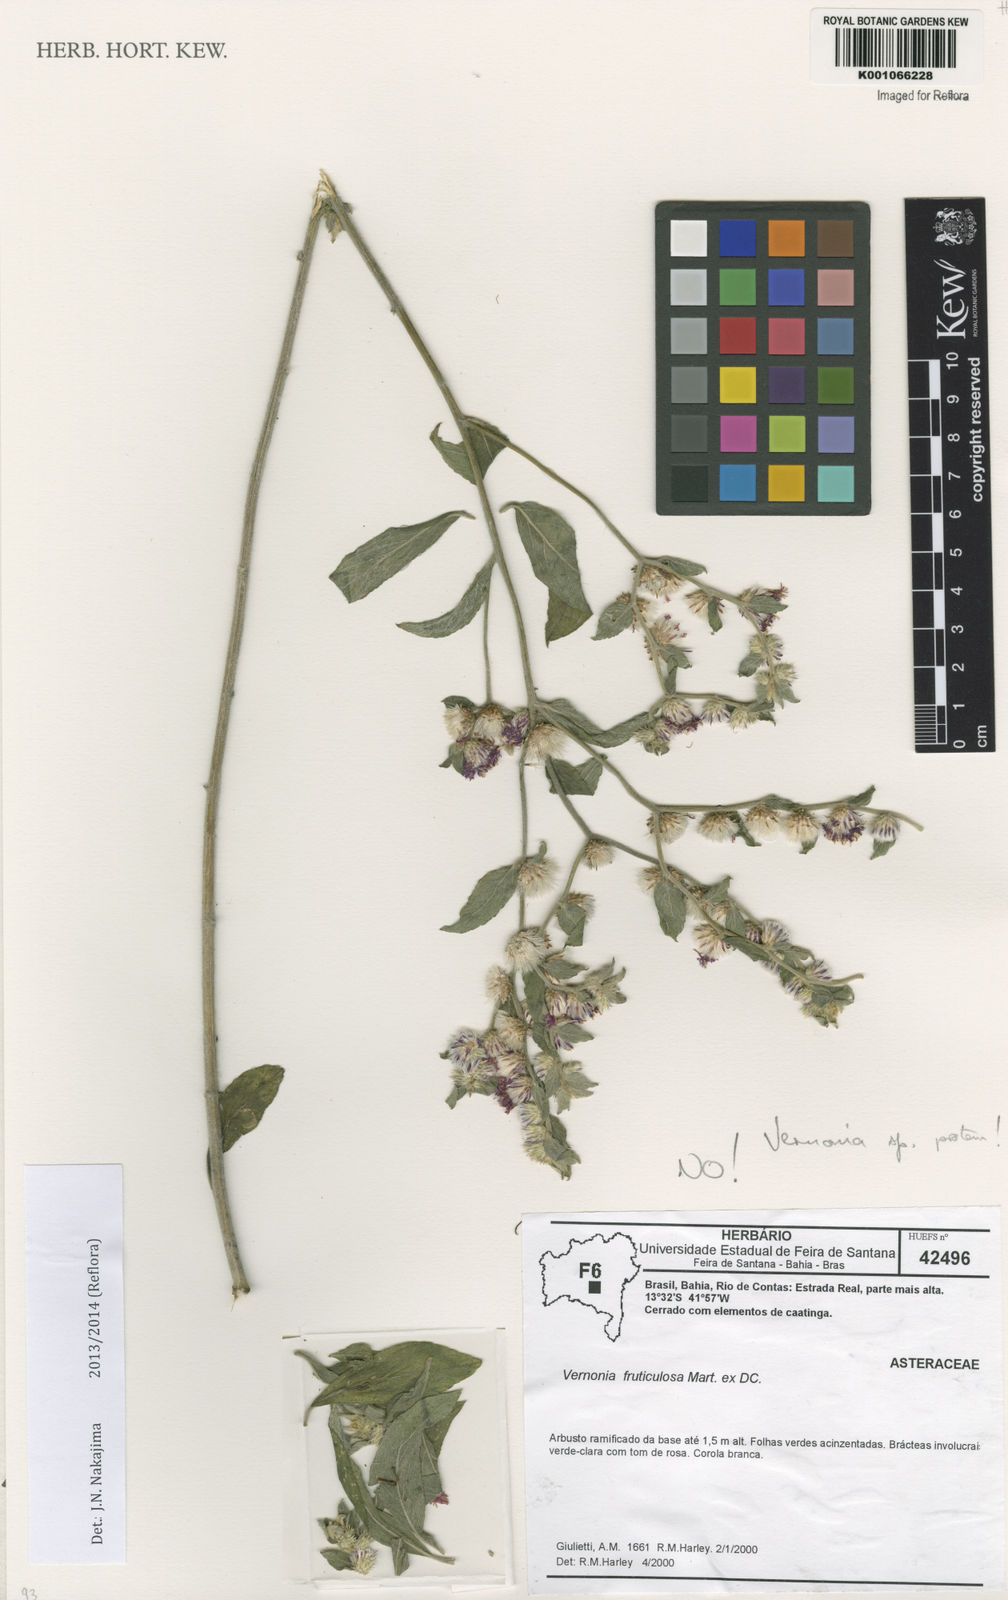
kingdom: Plantae
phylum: Tracheophyta
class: Magnoliopsida
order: Asterales
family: Asteraceae
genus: Lepidaploa
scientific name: Lepidaploa pseudaurea
